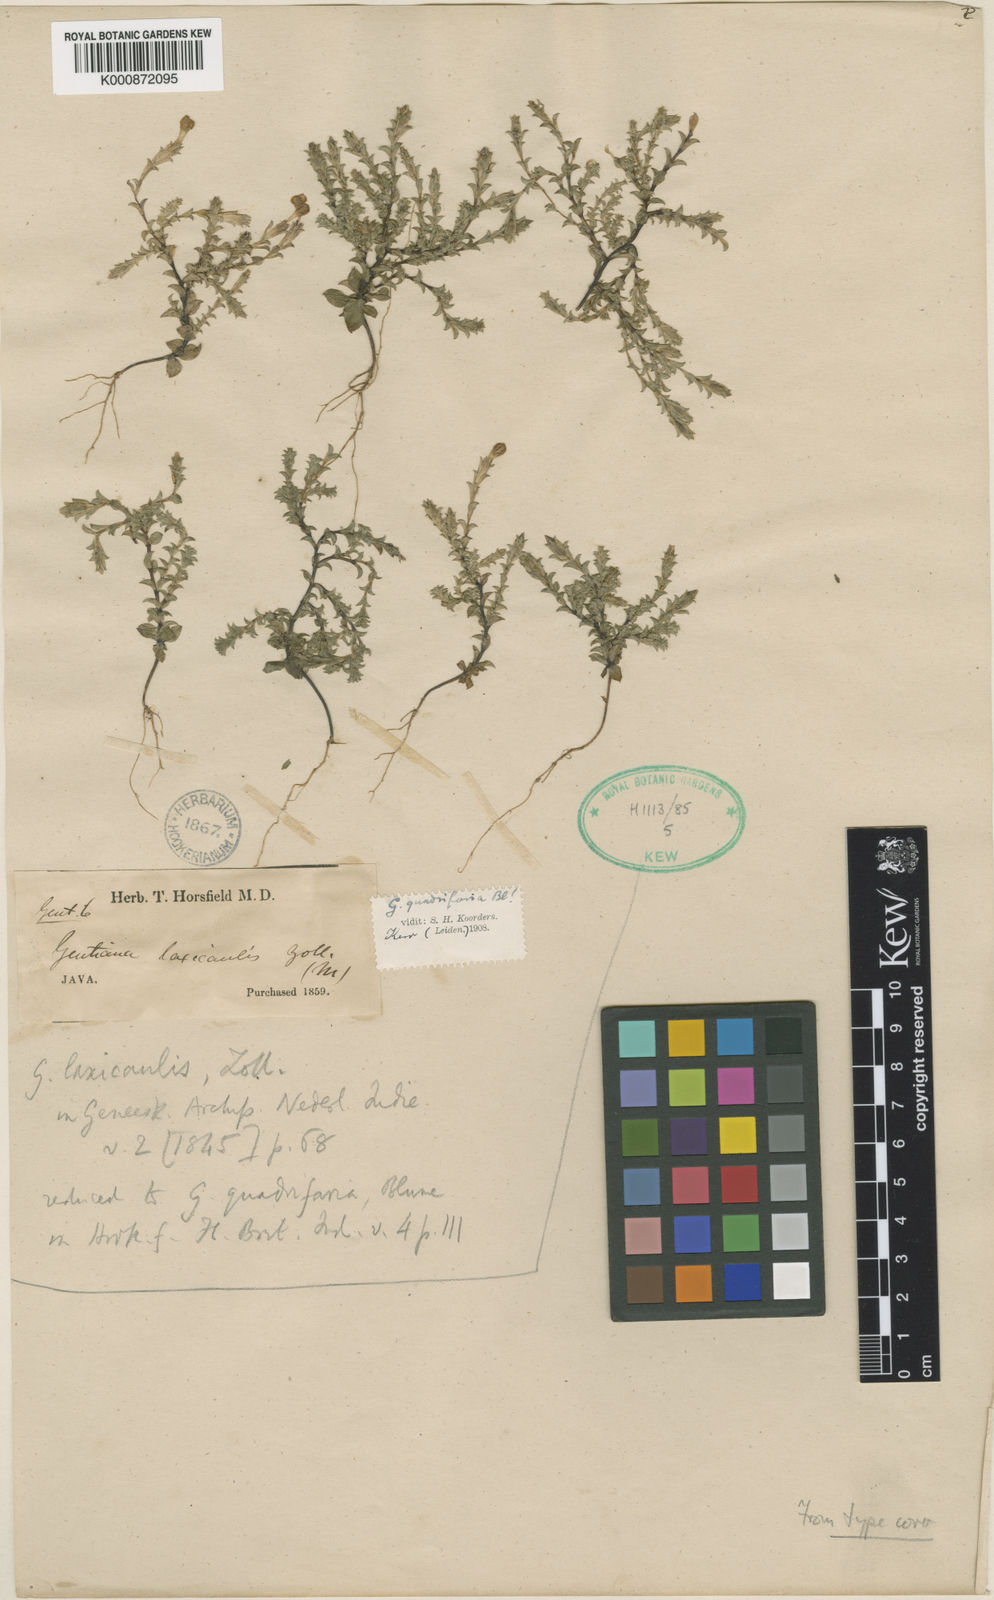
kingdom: Plantae
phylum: Tracheophyta
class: Magnoliopsida
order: Gentianales
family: Gentianaceae
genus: Gentiana
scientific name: Gentiana quadrifaria
